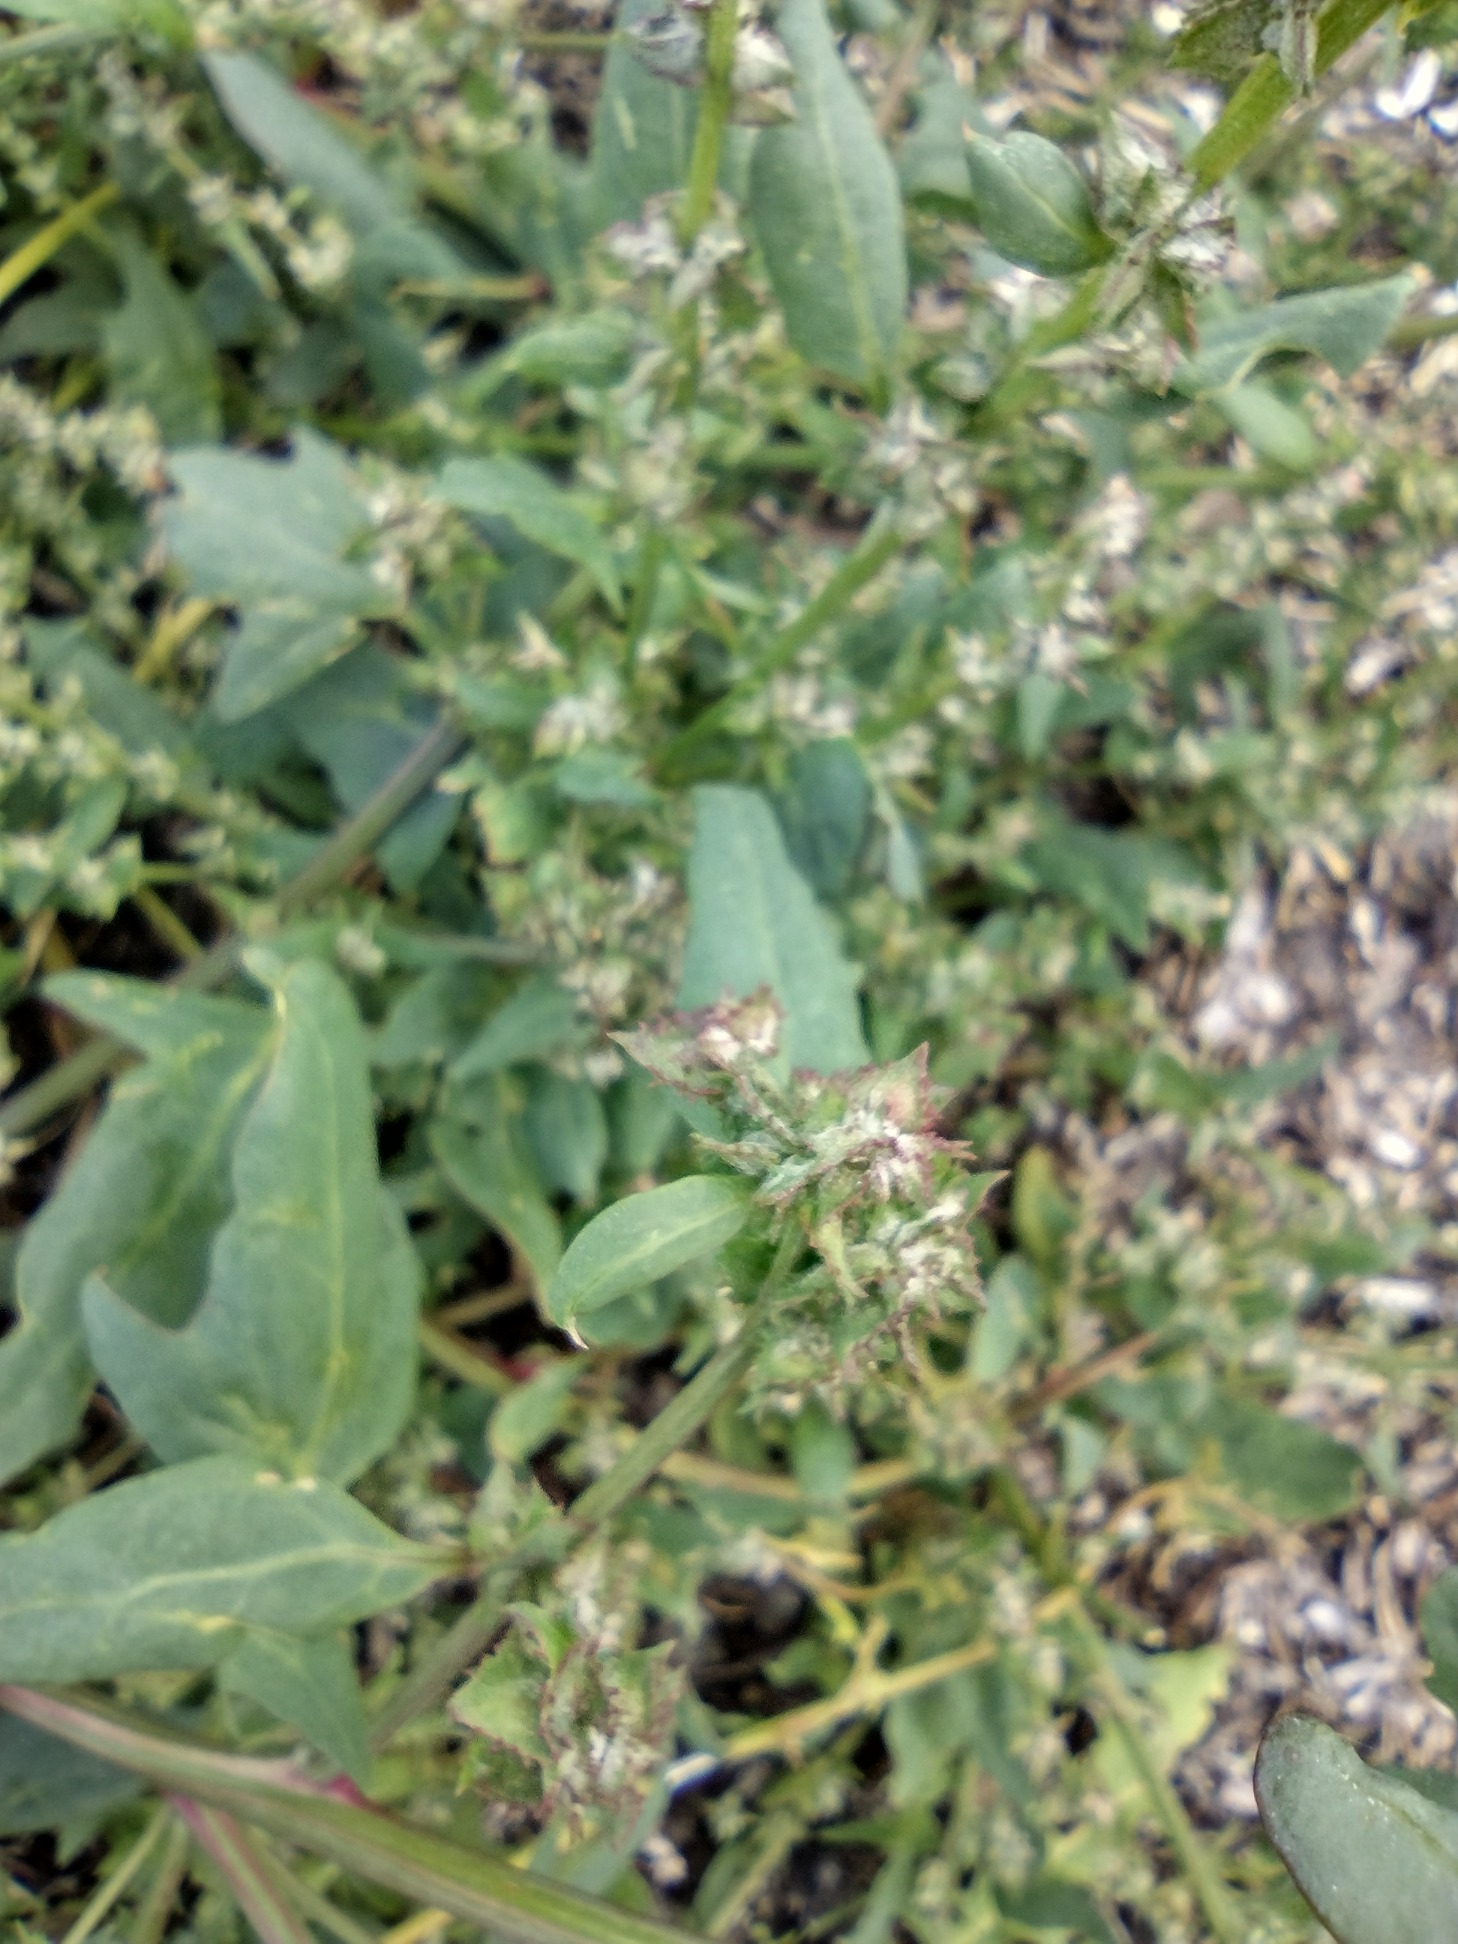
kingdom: Plantae
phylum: Tracheophyta
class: Magnoliopsida
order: Caryophyllales
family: Amaranthaceae
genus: Atriplex
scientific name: Atriplex prostrata
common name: Spyd-mælde
